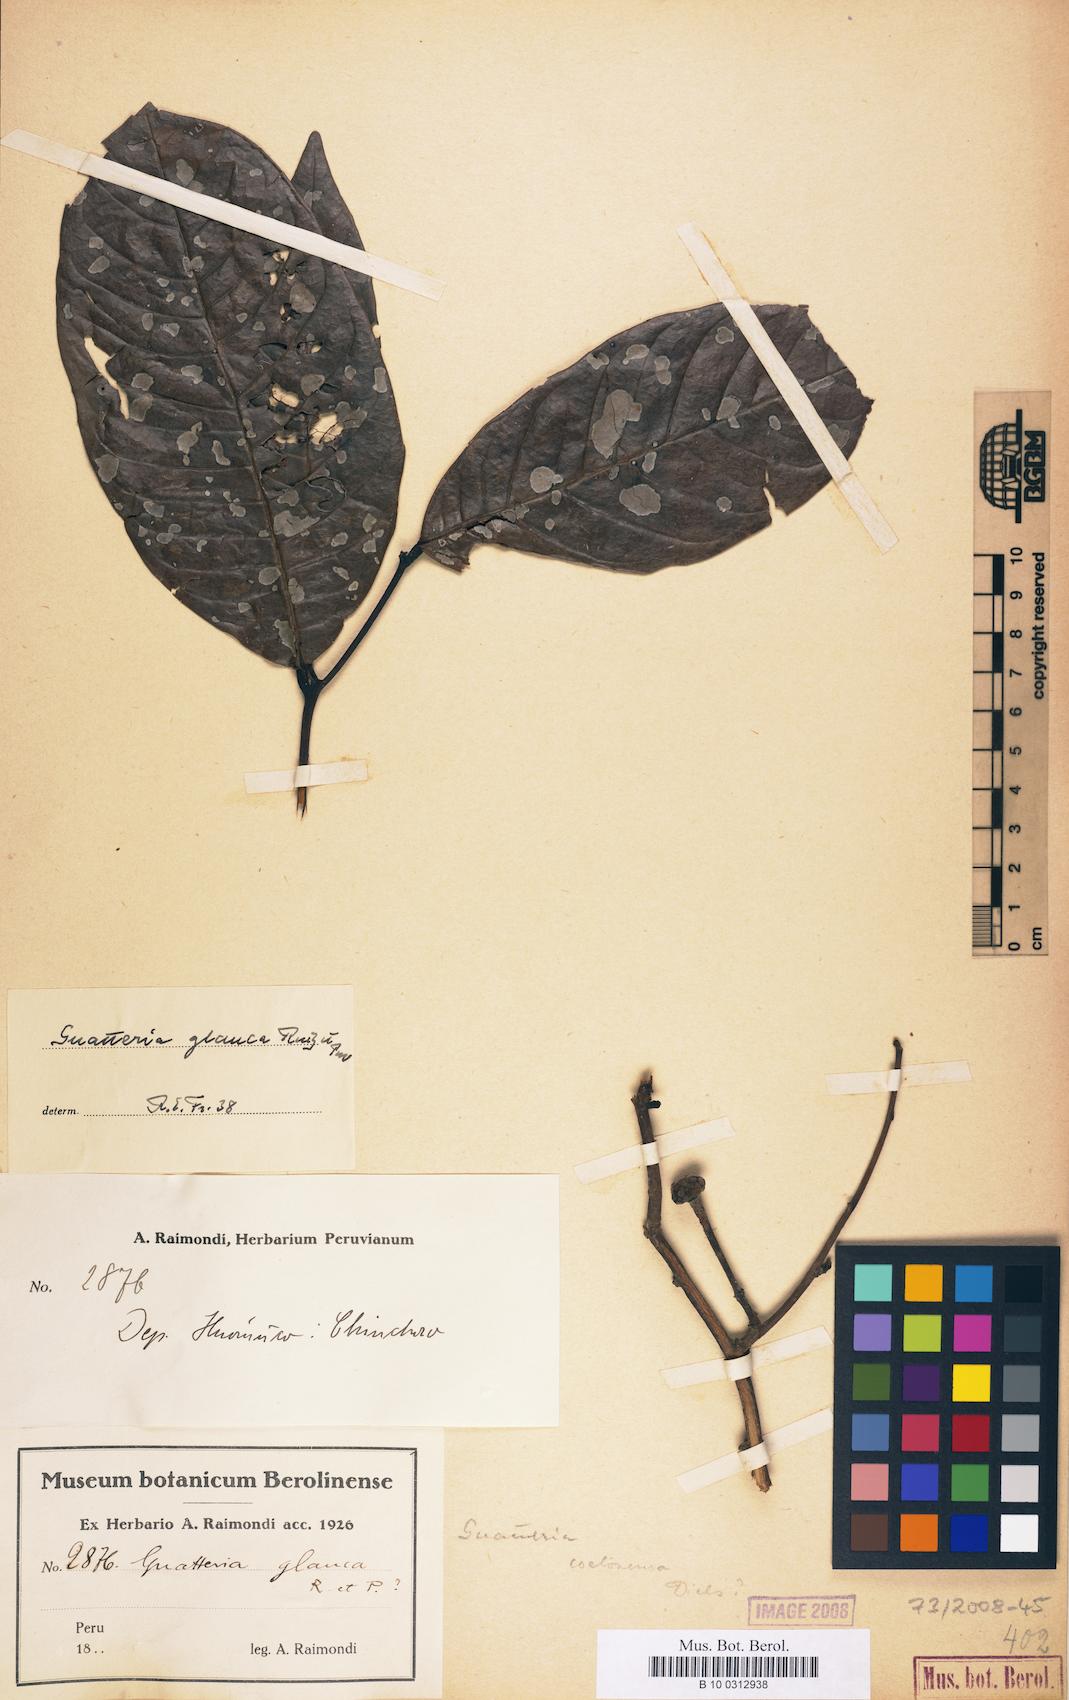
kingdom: Plantae
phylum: Tracheophyta
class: Magnoliopsida
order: Magnoliales
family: Annonaceae
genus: Guatteria
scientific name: Guatteria punctata
